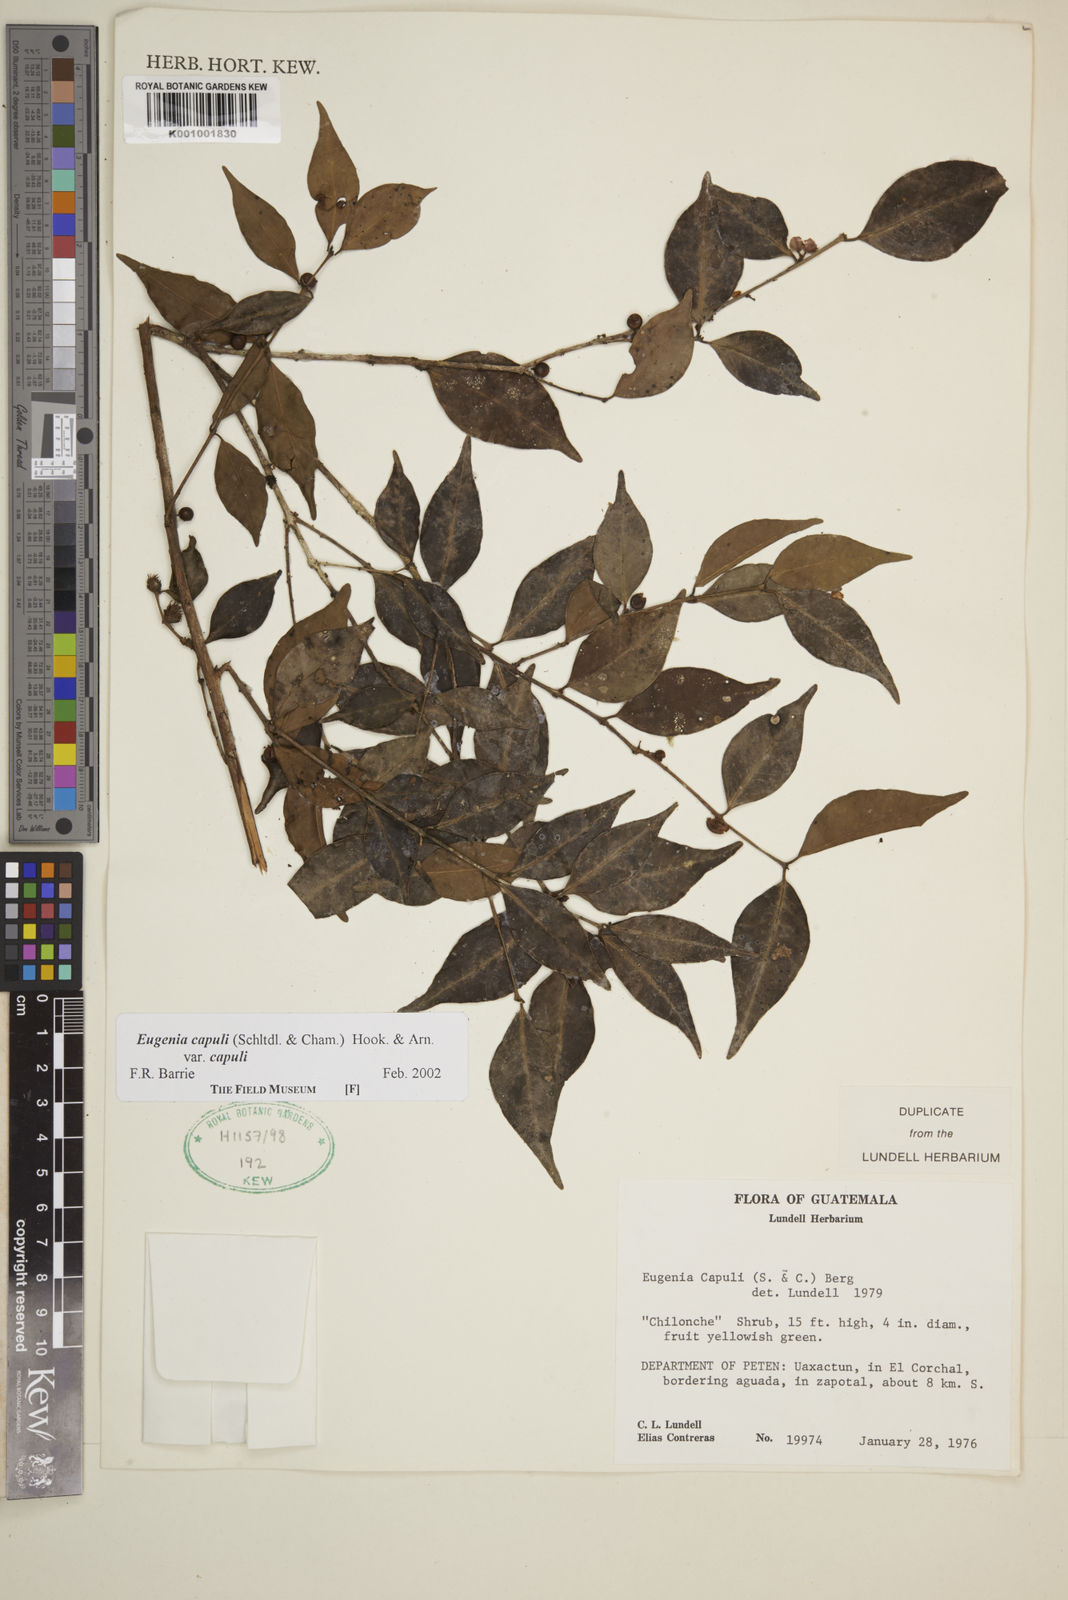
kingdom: Plantae
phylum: Tracheophyta
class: Magnoliopsida
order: Myrtales
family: Myrtaceae
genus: Eugenia
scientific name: Eugenia capuli
